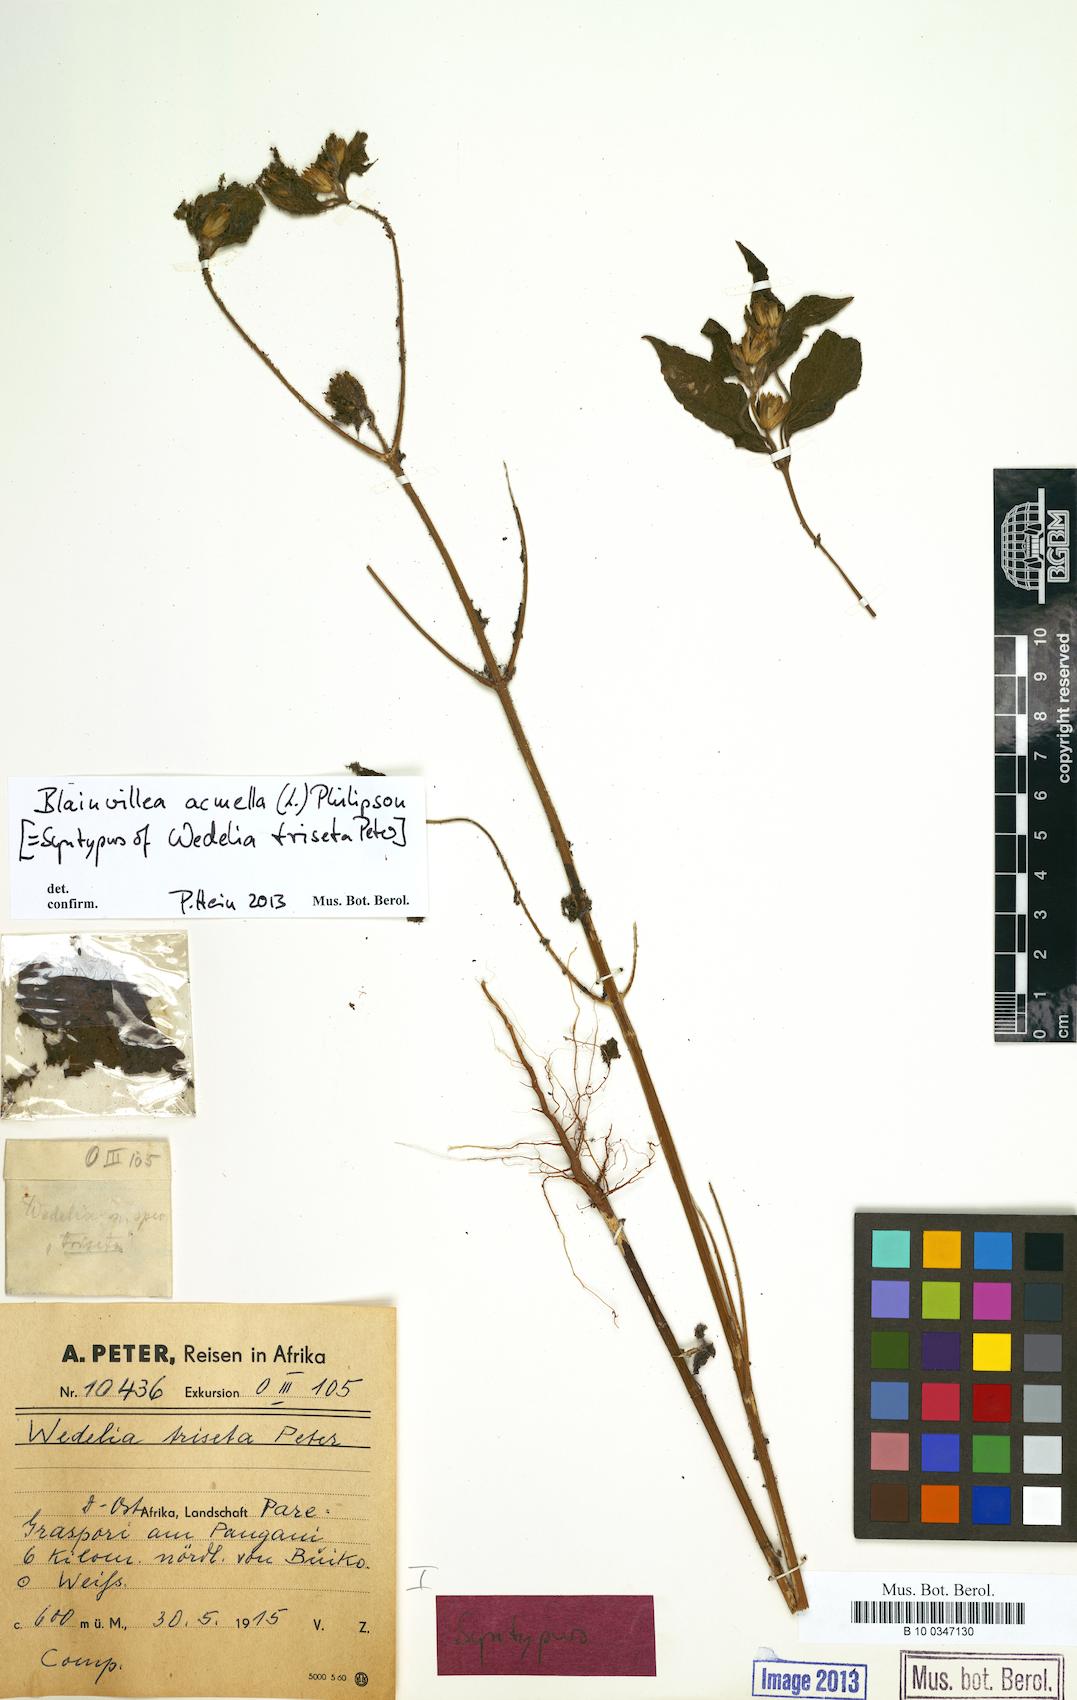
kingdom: Plantae
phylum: Tracheophyta
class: Magnoliopsida
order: Asterales
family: Asteraceae
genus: Blainvillea
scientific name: Blainvillea acmella
